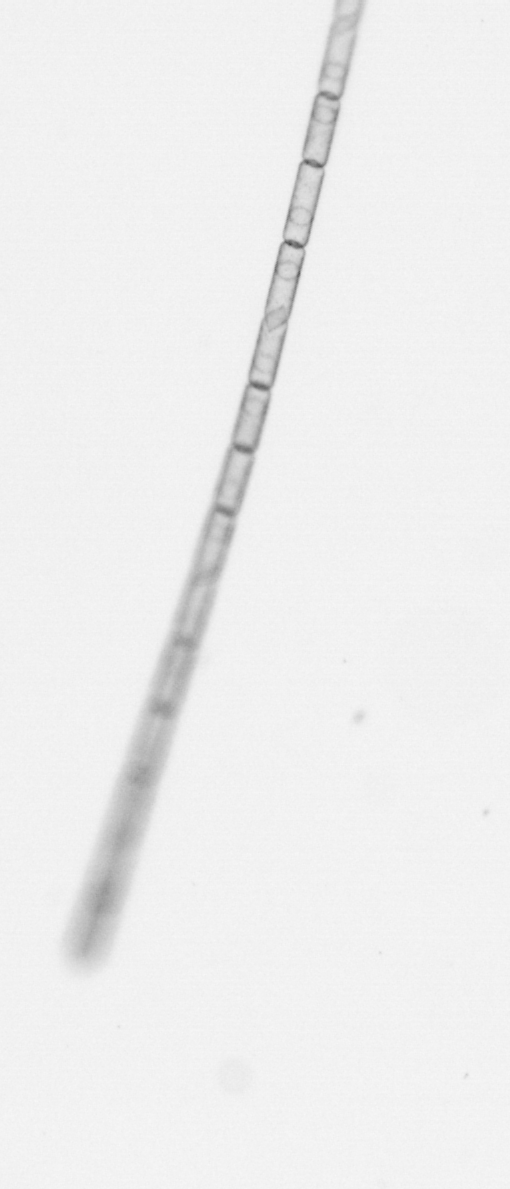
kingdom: Chromista
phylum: Ochrophyta
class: Bacillariophyceae
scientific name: Bacillariophyceae
